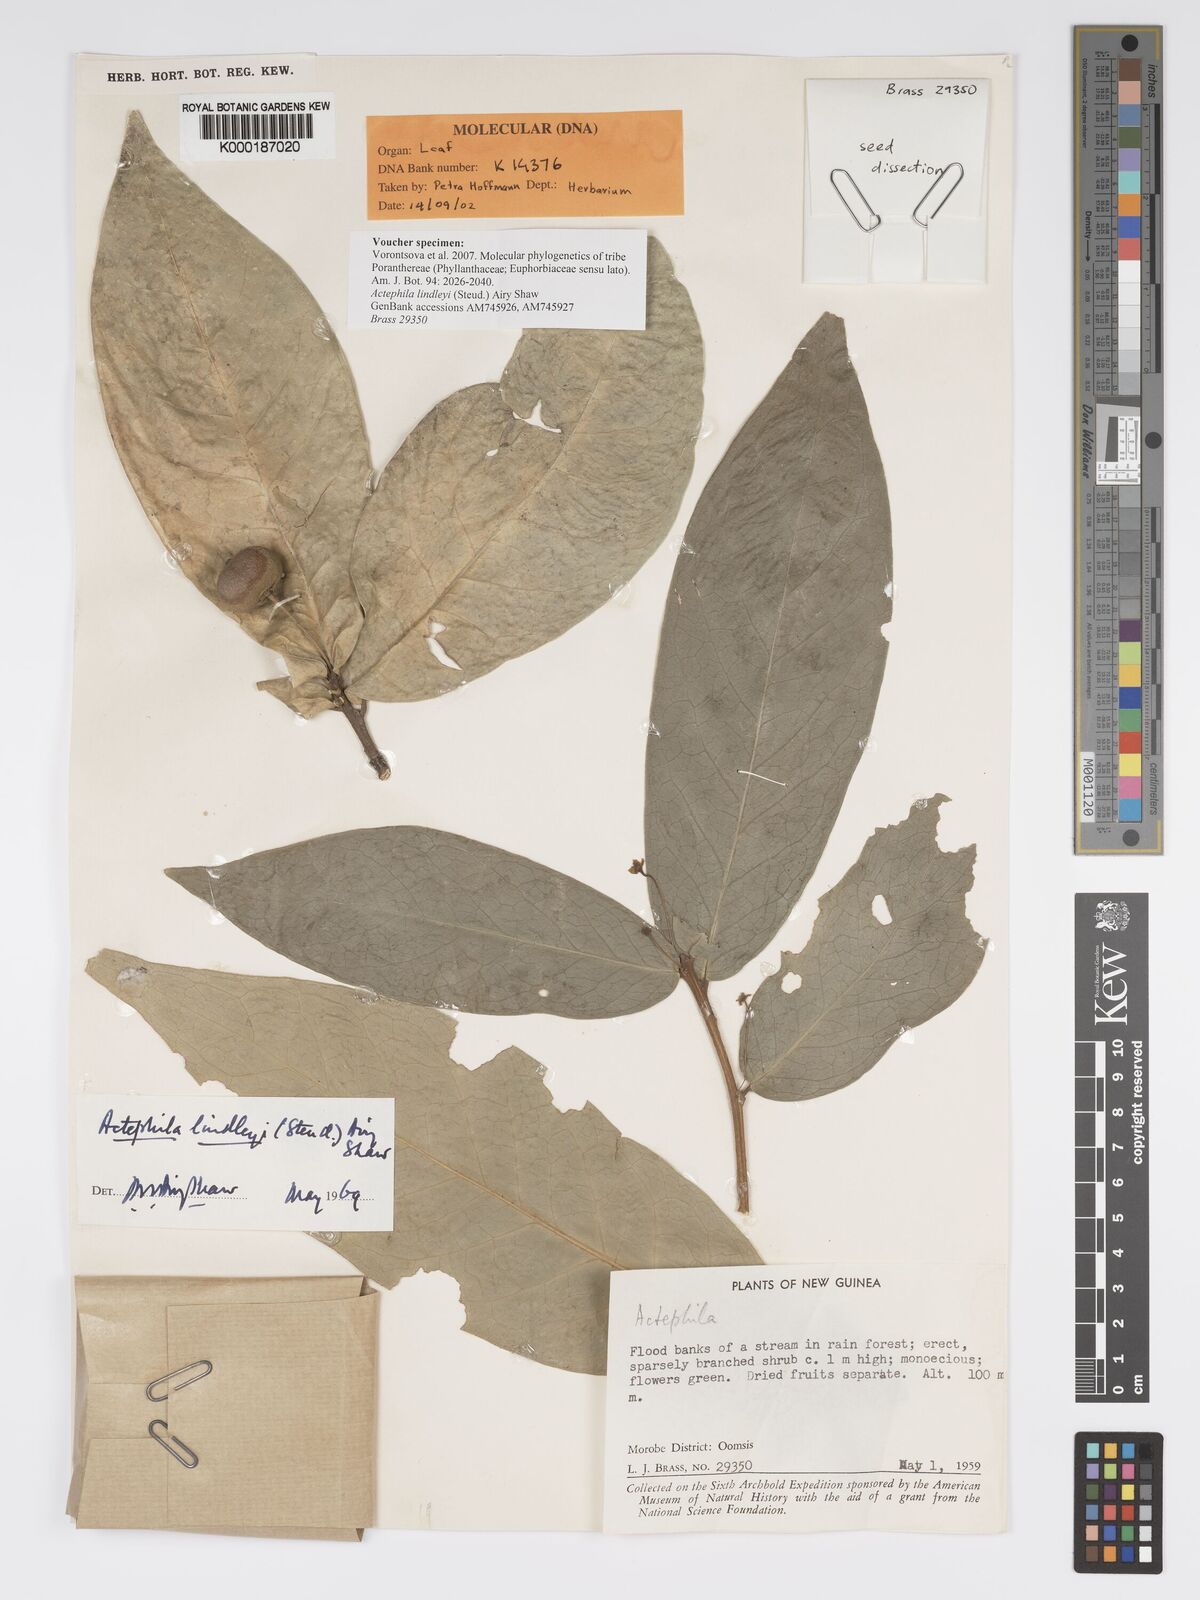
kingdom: Plantae
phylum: Tracheophyta
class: Magnoliopsida
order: Malpighiales
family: Phyllanthaceae
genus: Actephila
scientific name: Actephila lindleyi
